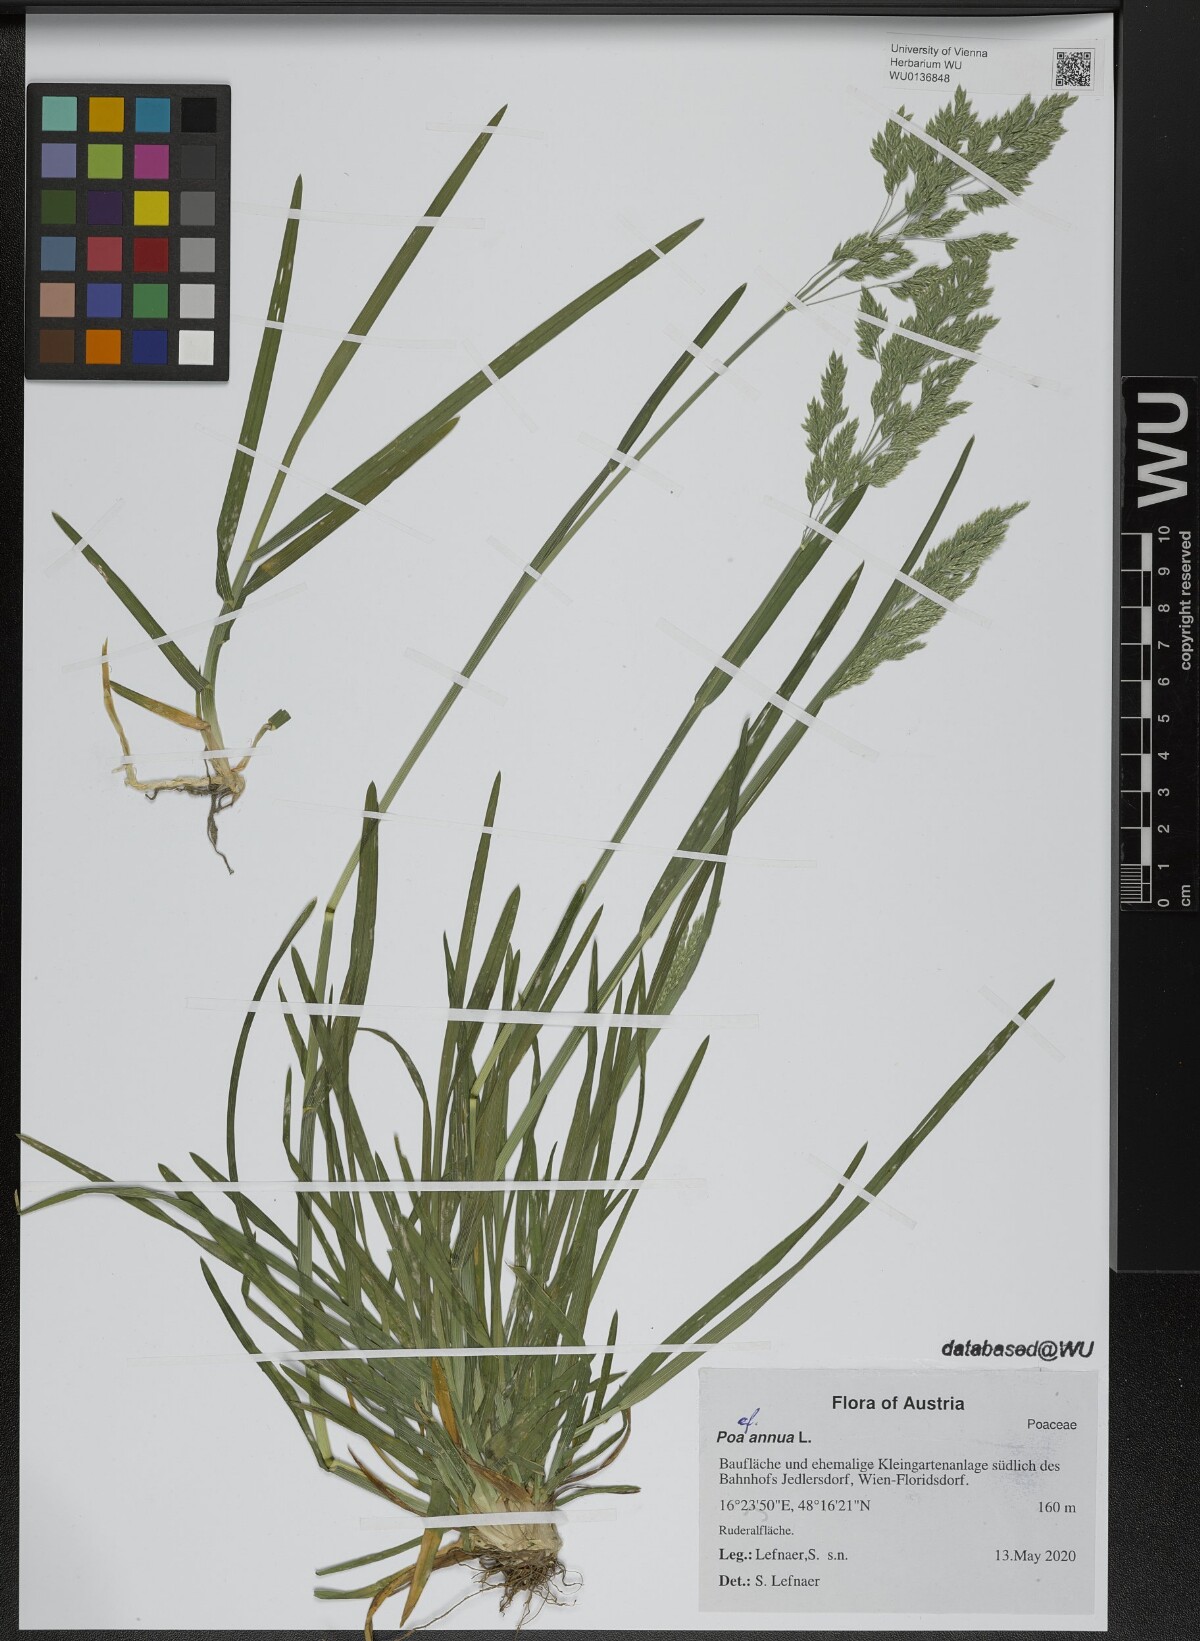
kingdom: Plantae
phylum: Tracheophyta
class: Liliopsida
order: Poales
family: Poaceae
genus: Poa
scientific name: Poa annua
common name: Annual bluegrass
